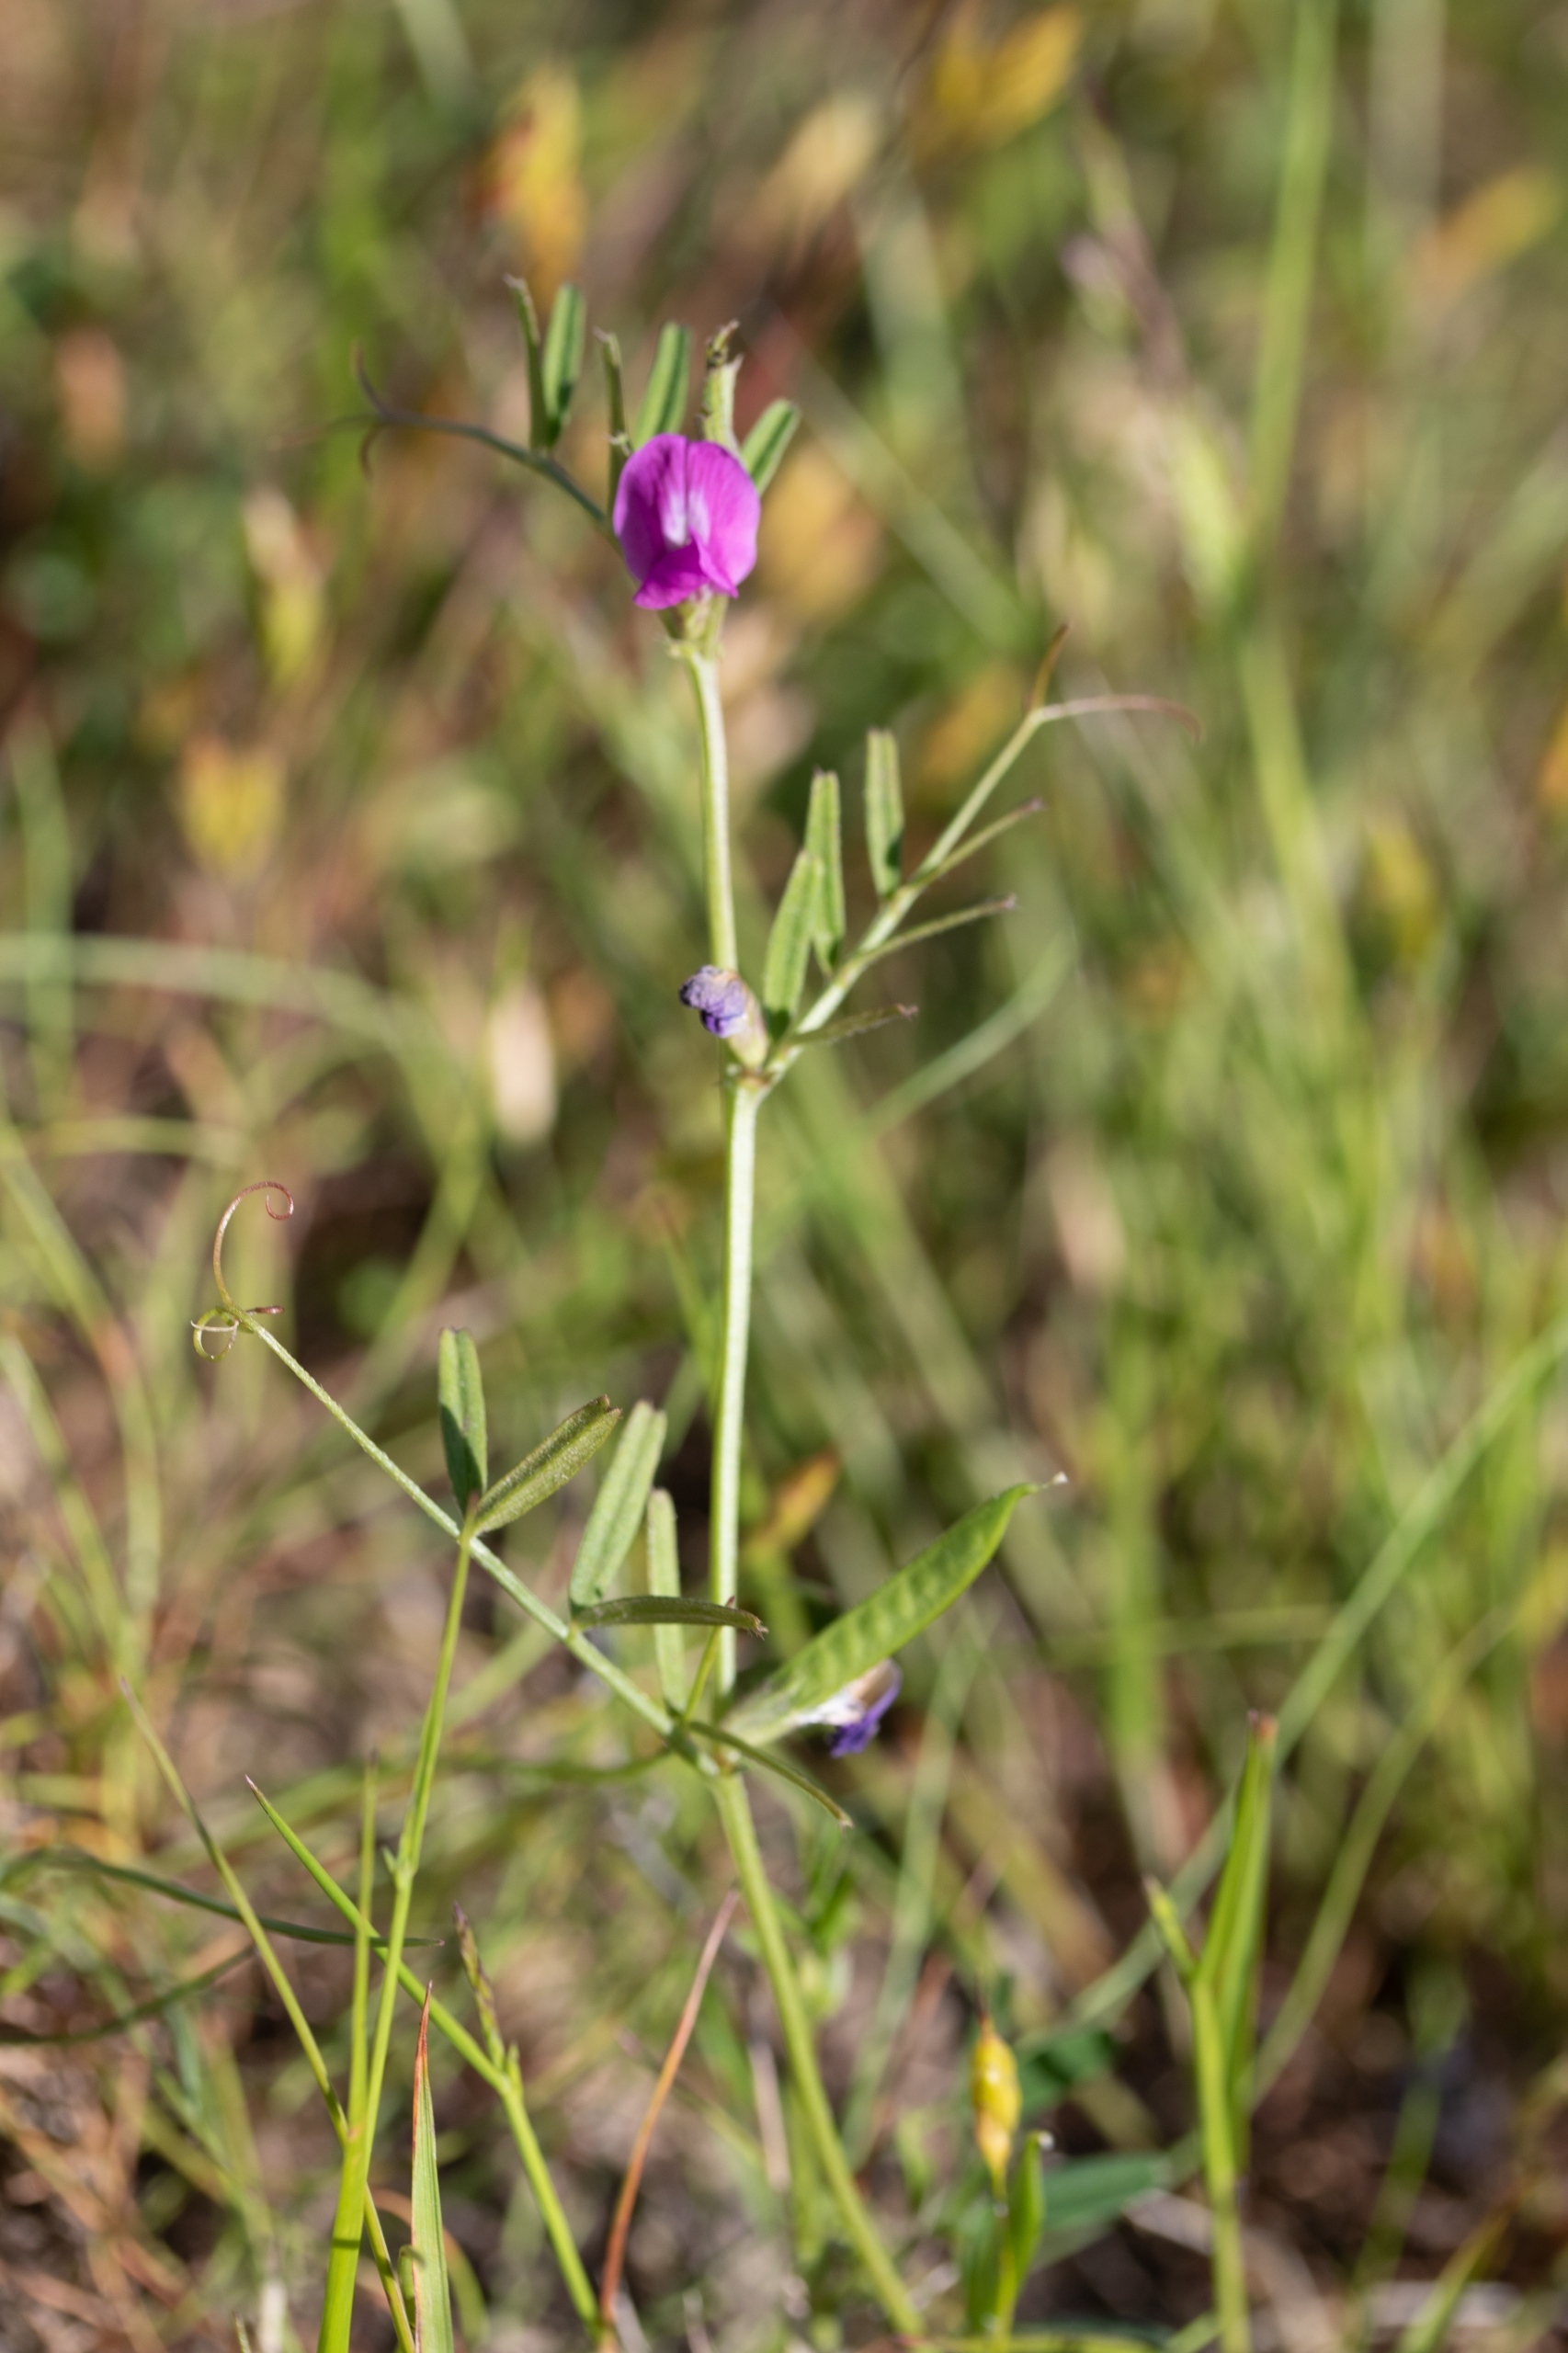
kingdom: Plantae
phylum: Tracheophyta
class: Magnoliopsida
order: Fabales
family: Fabaceae
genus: Vicia
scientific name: Vicia sativa
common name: Smalbladet vikke
